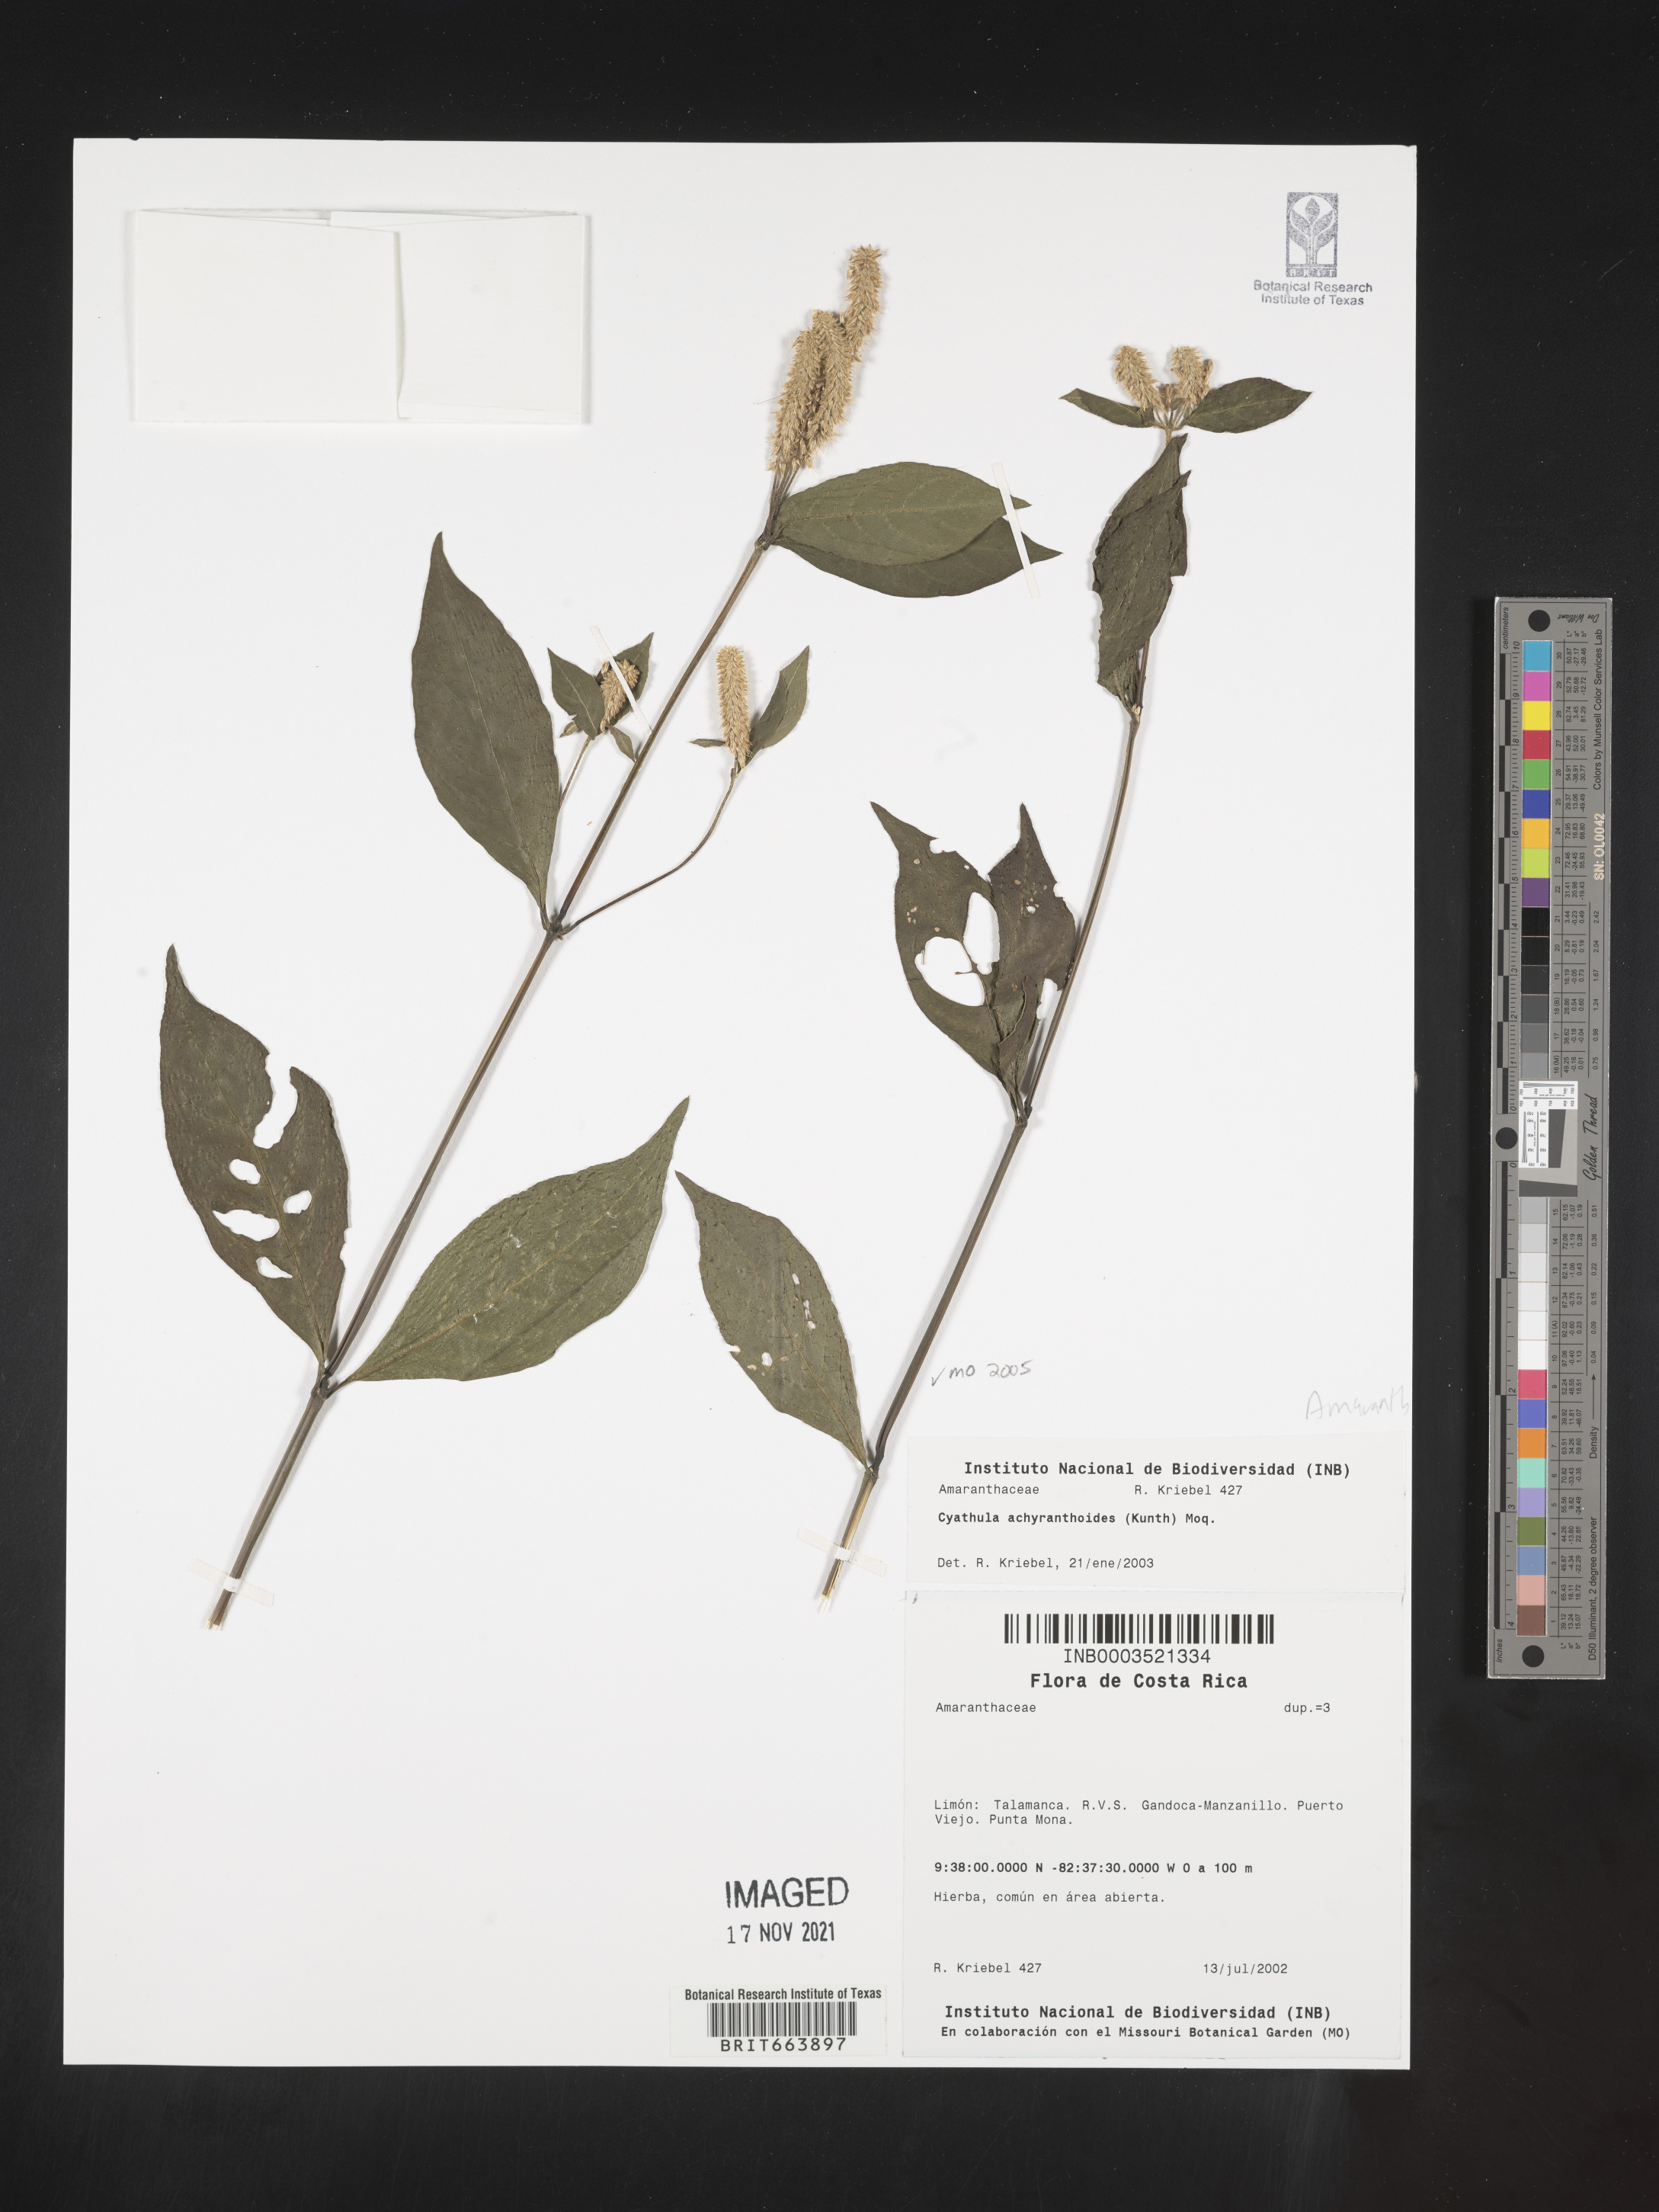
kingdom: Plantae
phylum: Tracheophyta
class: Magnoliopsida
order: Caryophyllales
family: Amaranthaceae
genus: Cyathula
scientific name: Cyathula
